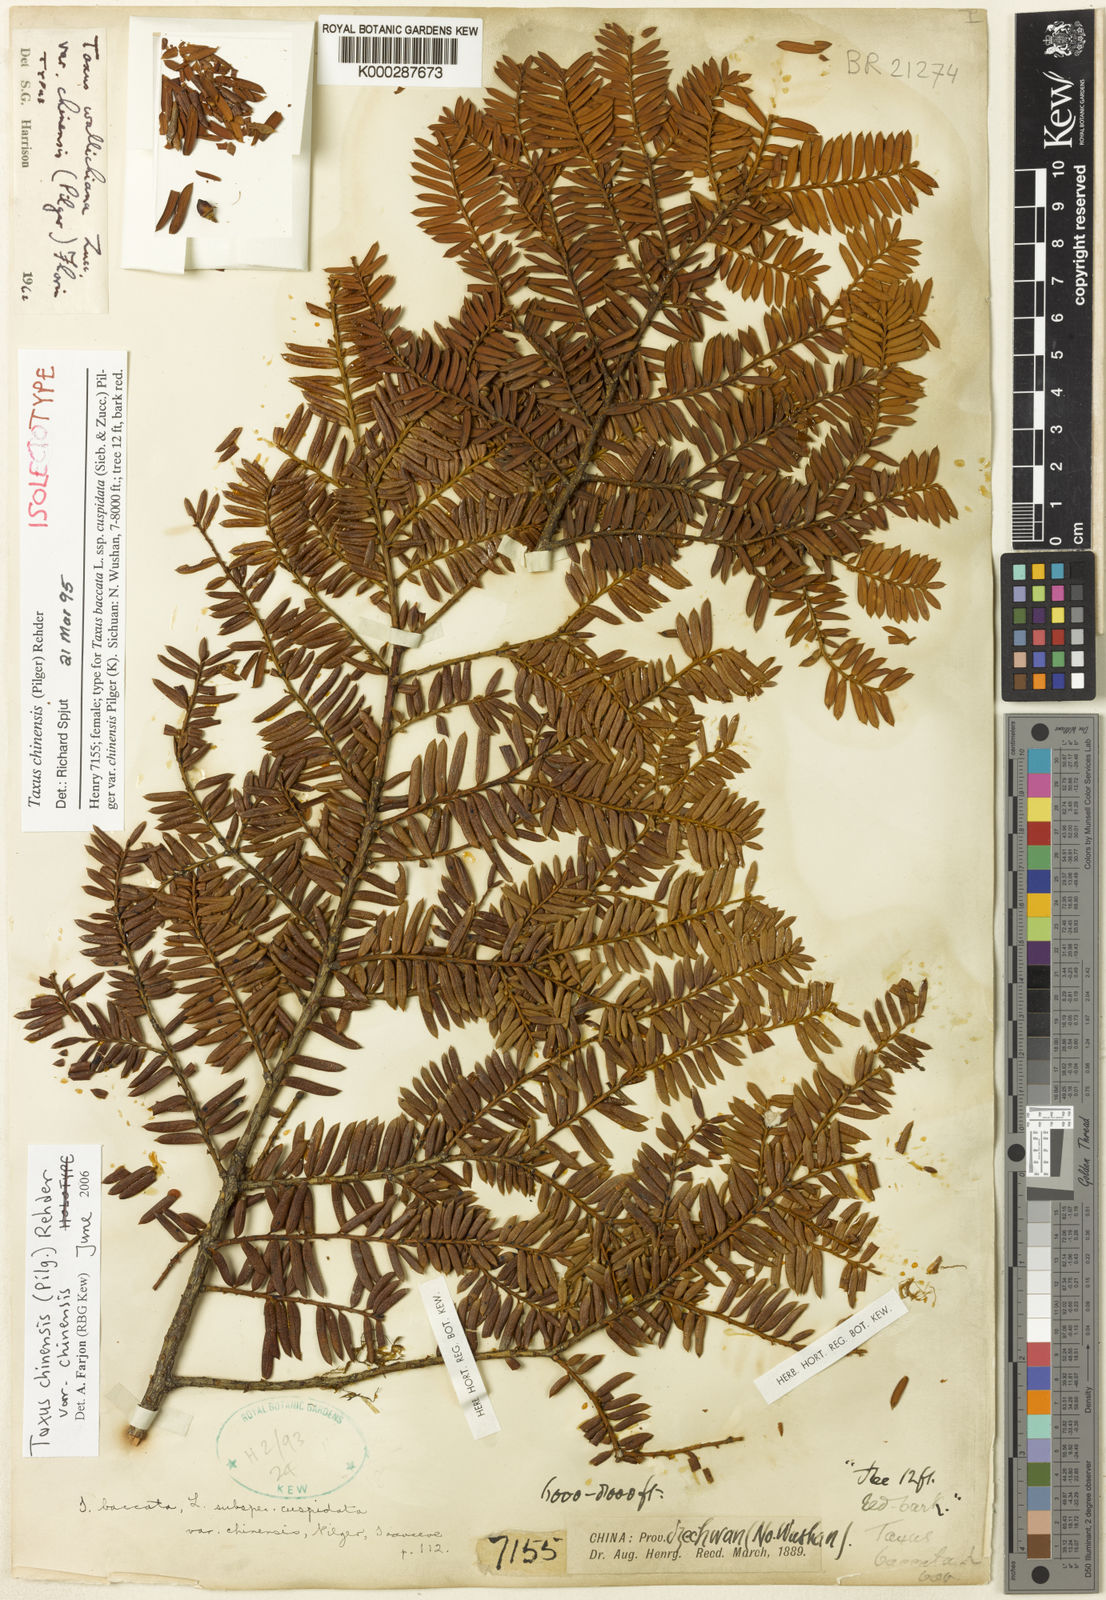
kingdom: Plantae
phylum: Tracheophyta
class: Pinopsida
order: Pinales
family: Taxaceae
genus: Taxus
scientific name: Taxus chinensis
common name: Chinese yew
